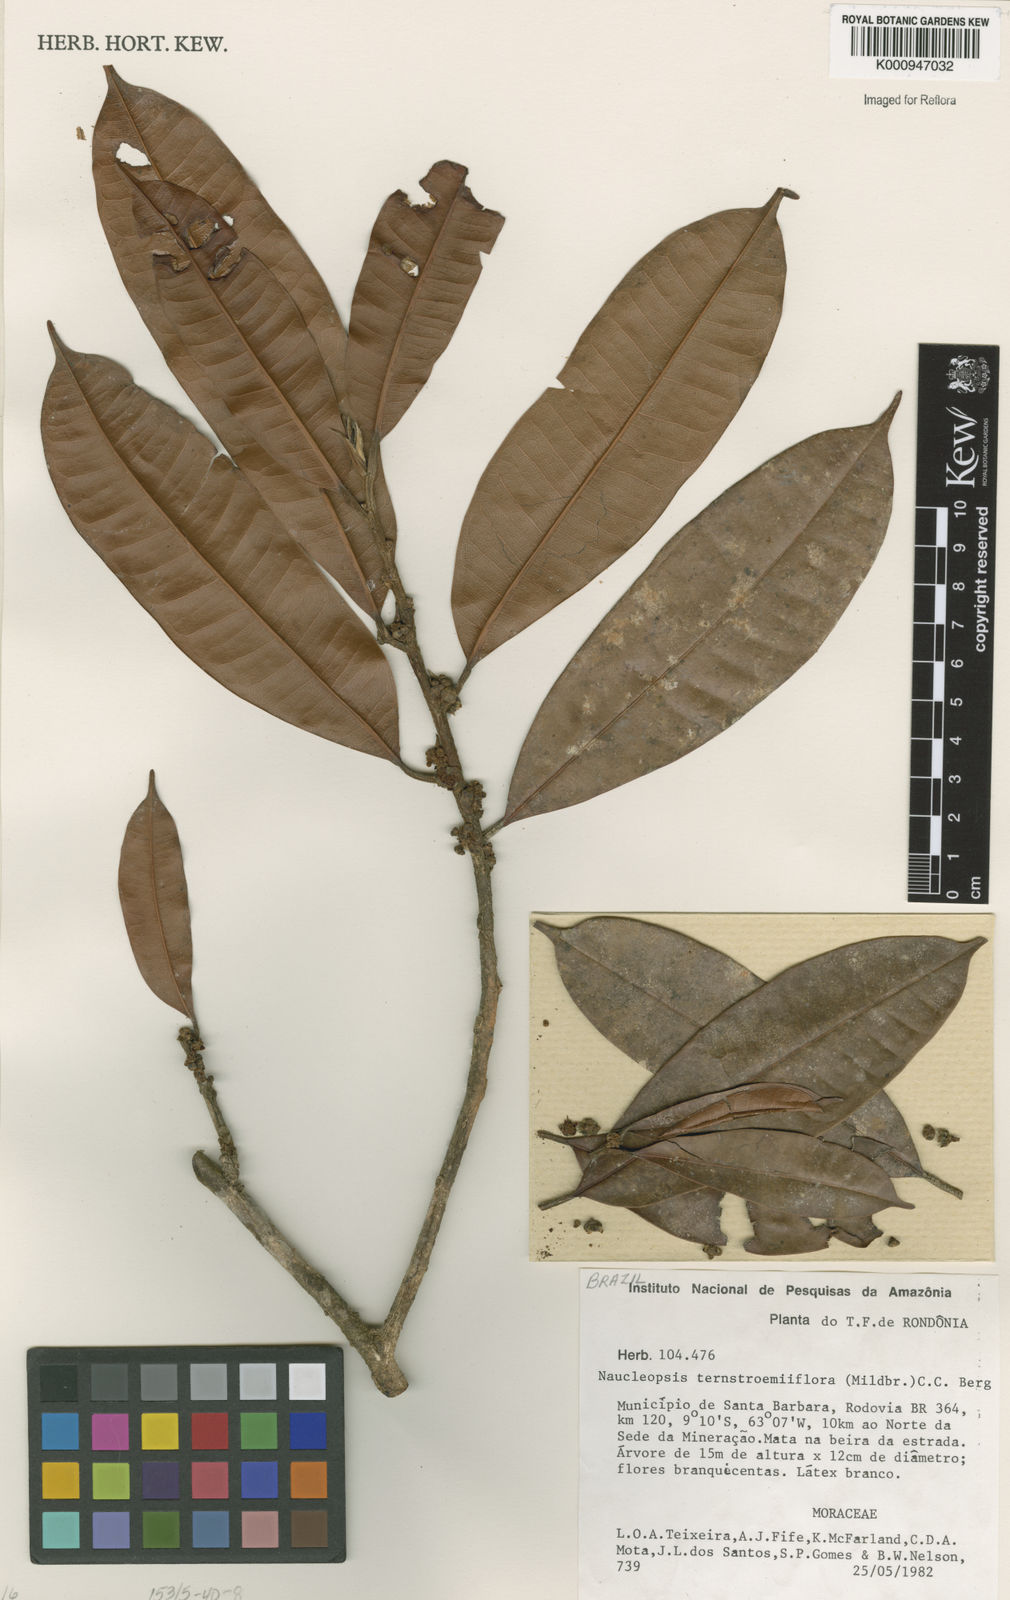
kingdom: Plantae
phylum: Tracheophyta
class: Magnoliopsida
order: Rosales
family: Moraceae
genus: Naucleopsis
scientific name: Naucleopsis ternstroemiiflora
